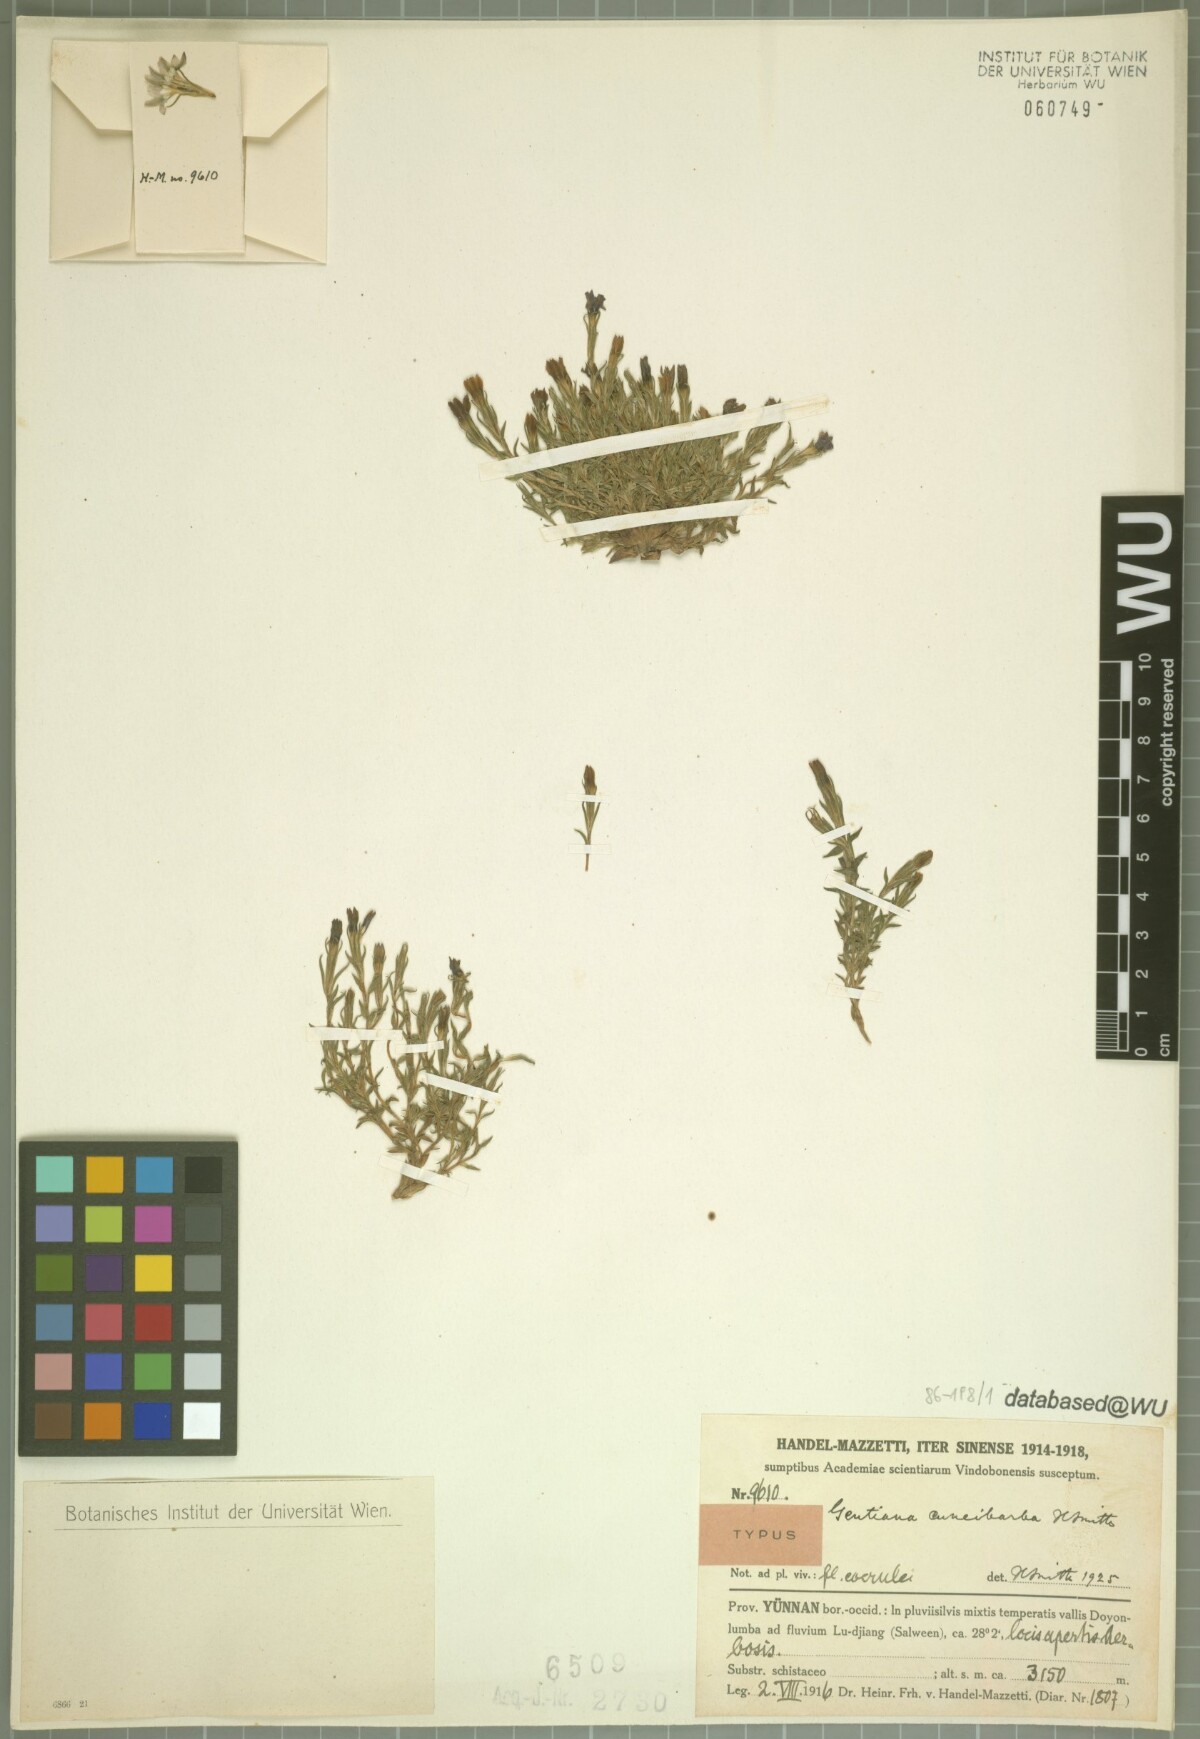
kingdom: Plantae
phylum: Tracheophyta
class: Magnoliopsida
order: Gentianales
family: Gentianaceae
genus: Gentiana
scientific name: Gentiana cuneibarba
